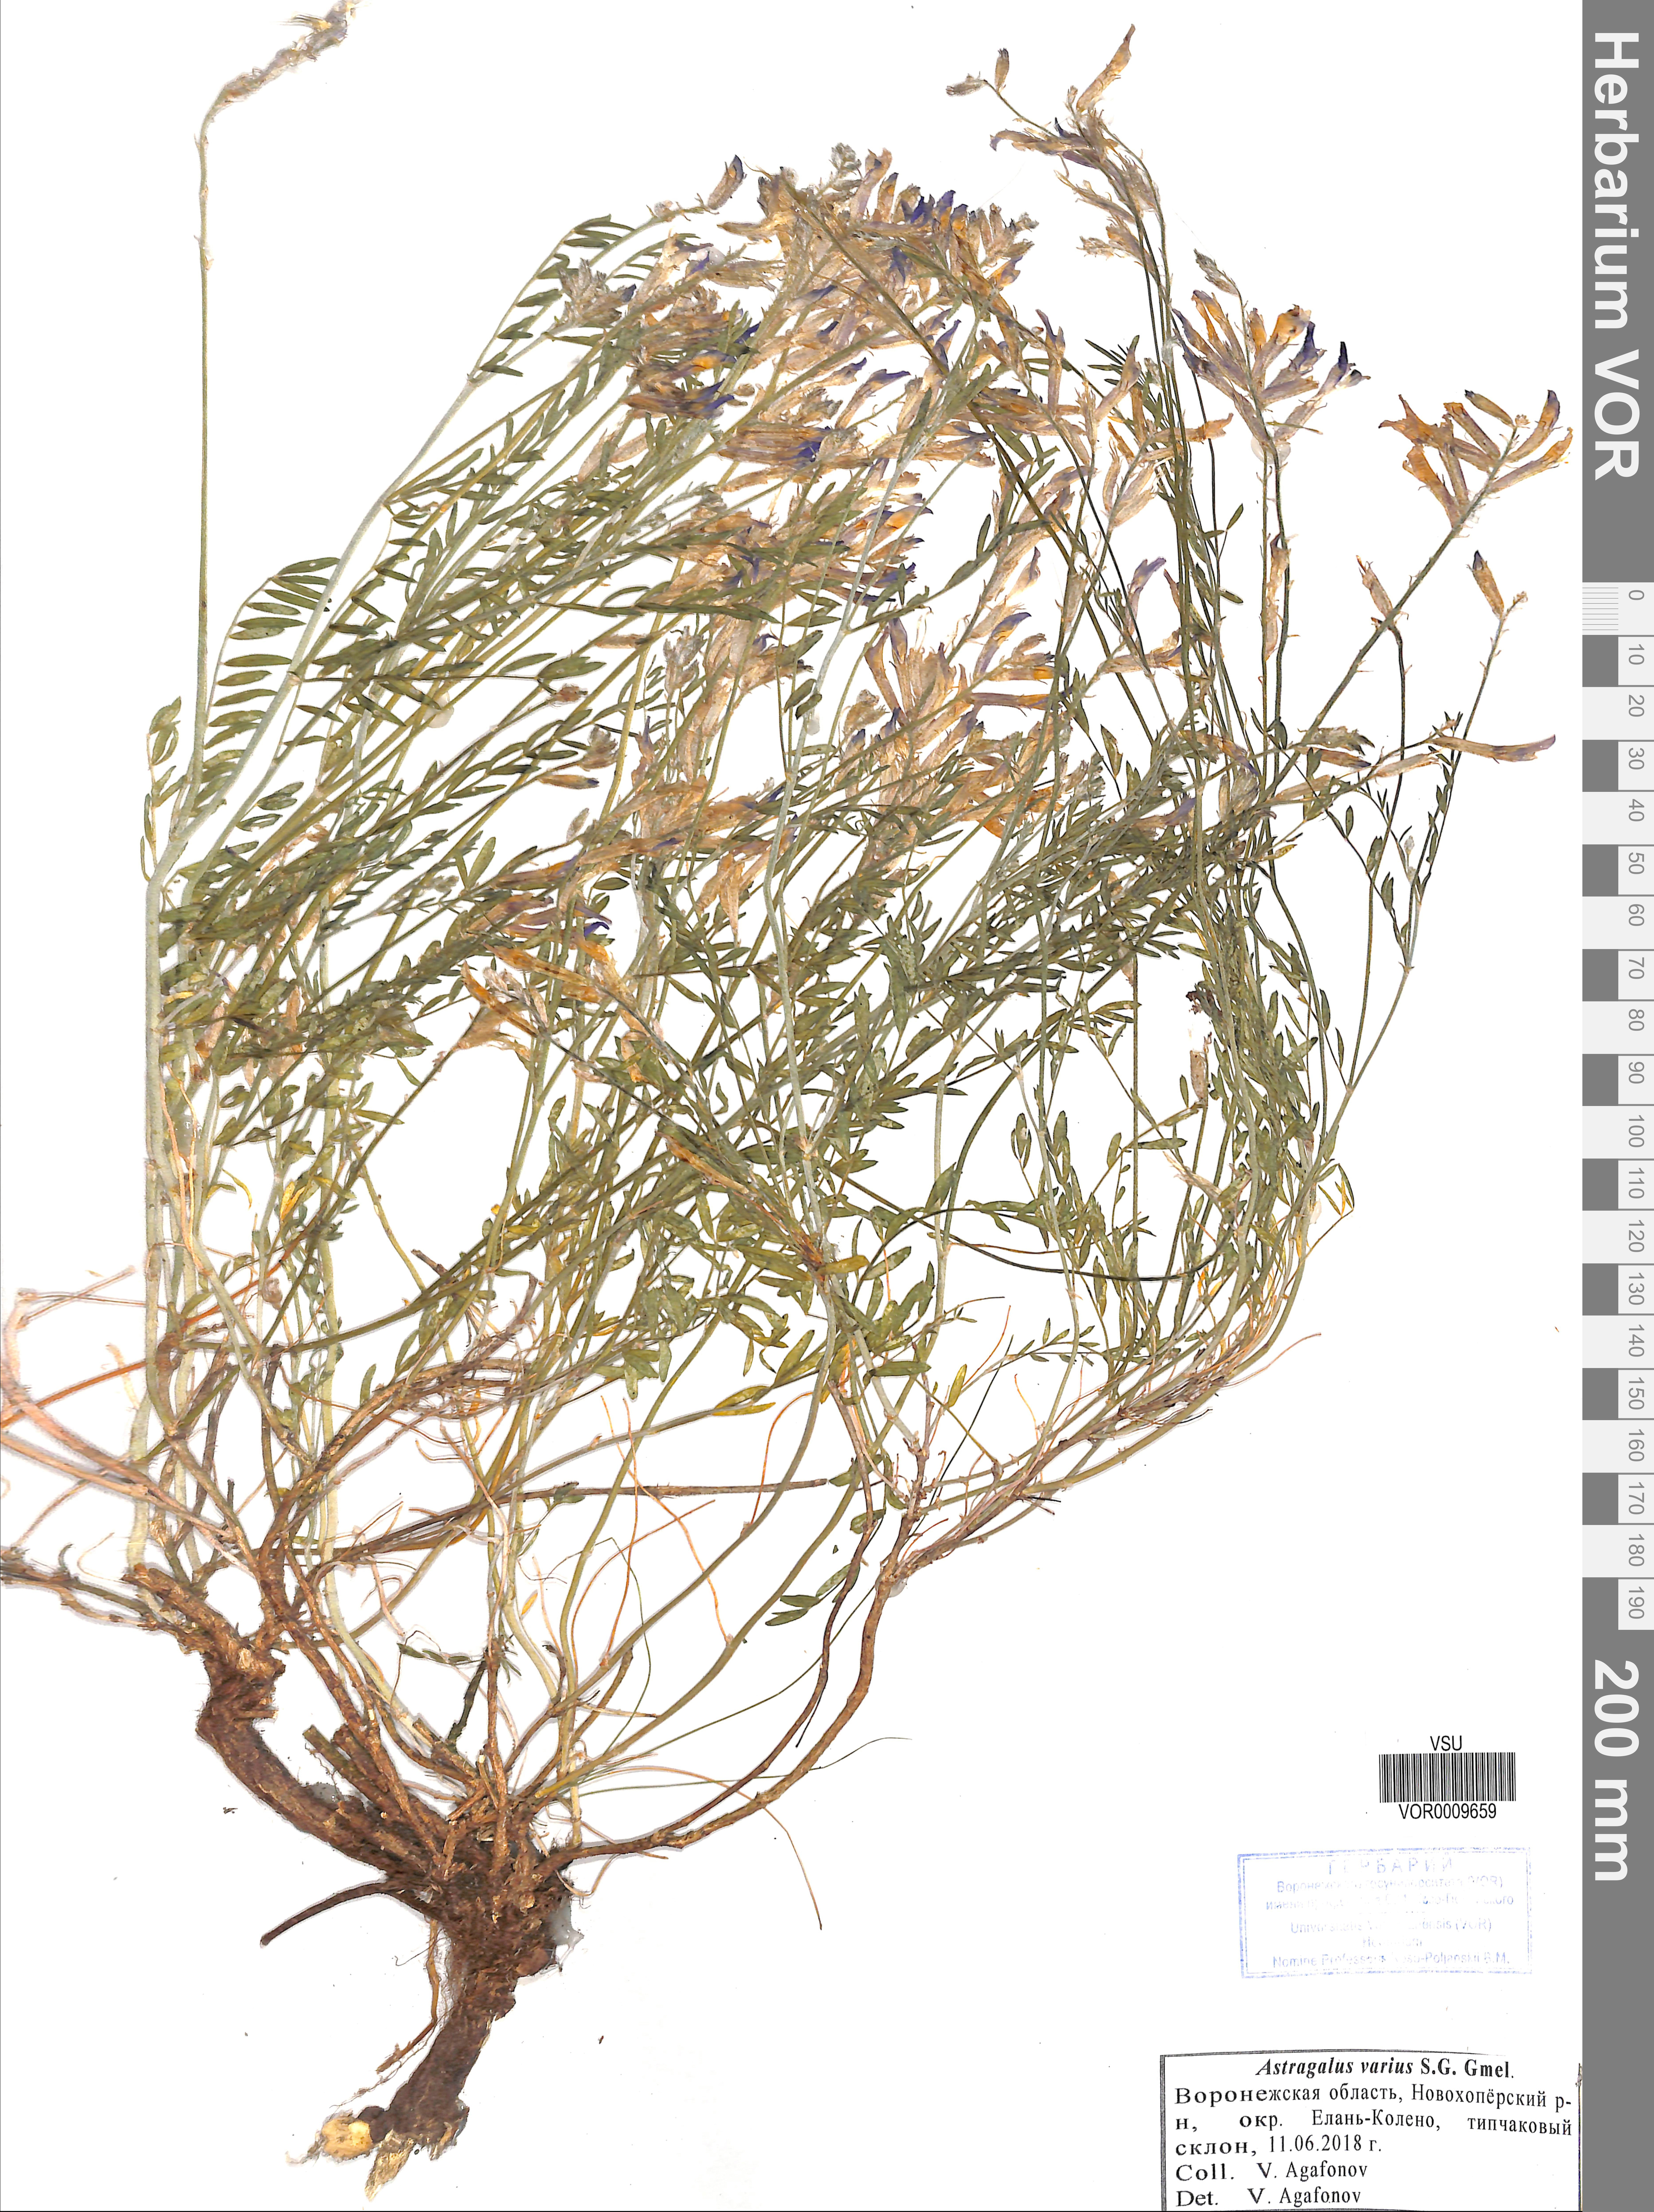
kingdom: Plantae
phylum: Tracheophyta
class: Magnoliopsida
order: Fabales
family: Fabaceae
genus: Astragalus
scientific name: Astragalus varius
